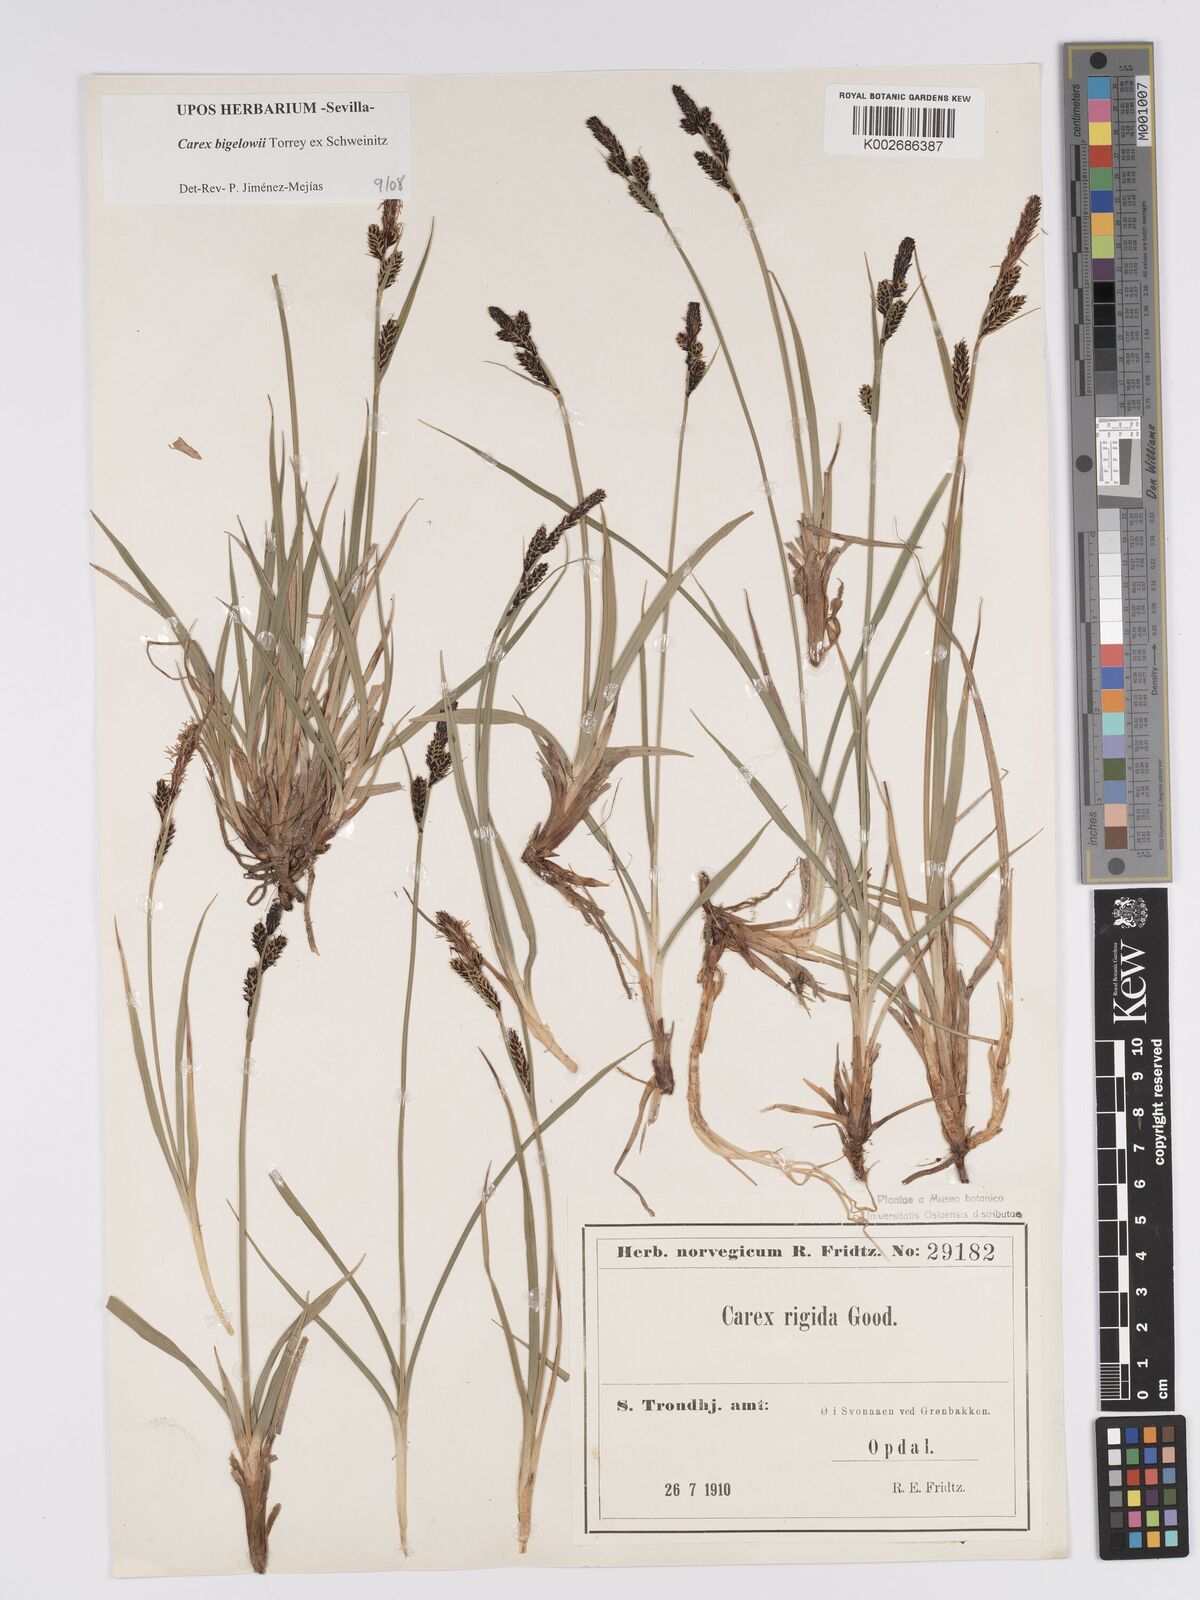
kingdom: Plantae
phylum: Tracheophyta
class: Liliopsida
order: Poales
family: Cyperaceae
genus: Carex
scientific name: Carex bigelowii
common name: Stiff sedge
